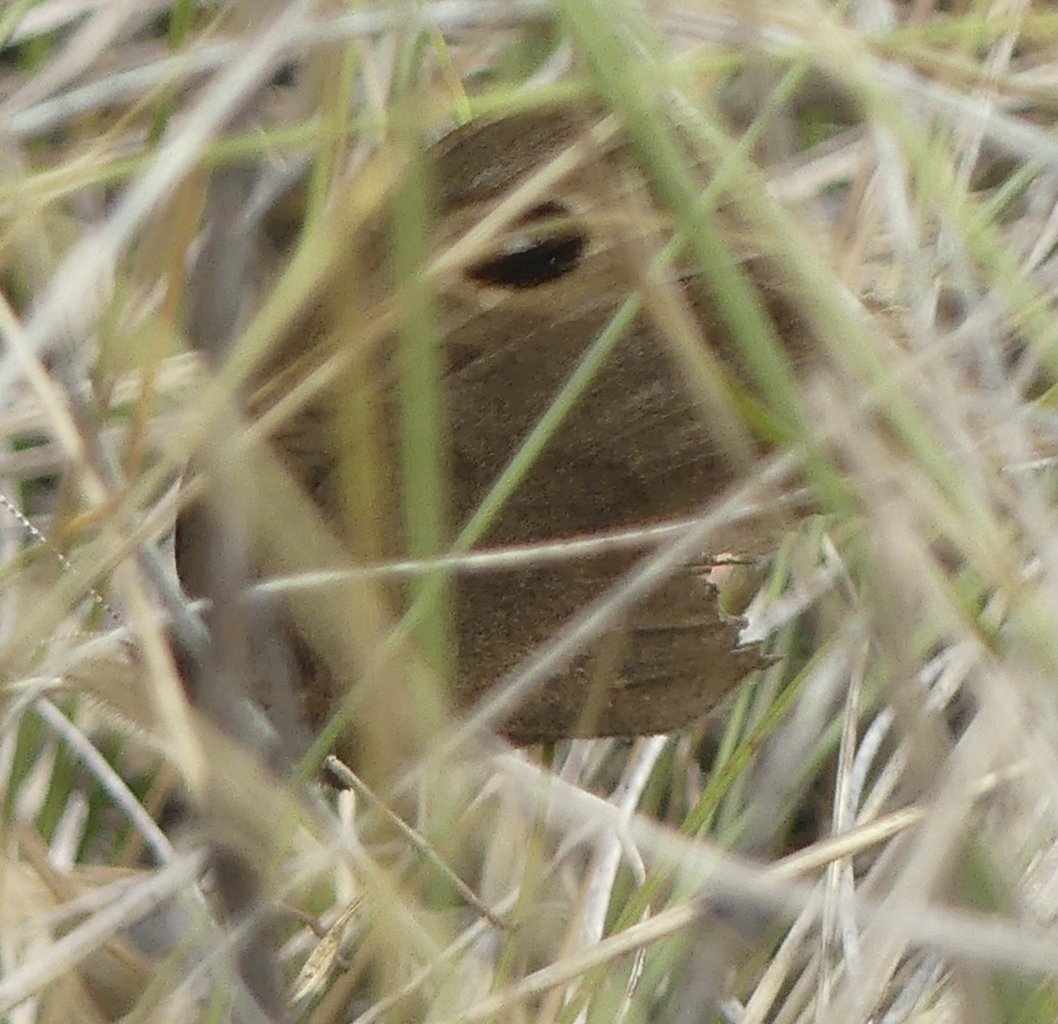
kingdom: Animalia
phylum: Arthropoda
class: Insecta
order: Lepidoptera
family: Nymphalidae
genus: Cercyonis
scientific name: Cercyonis pegala
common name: Common Wood-Nymph
